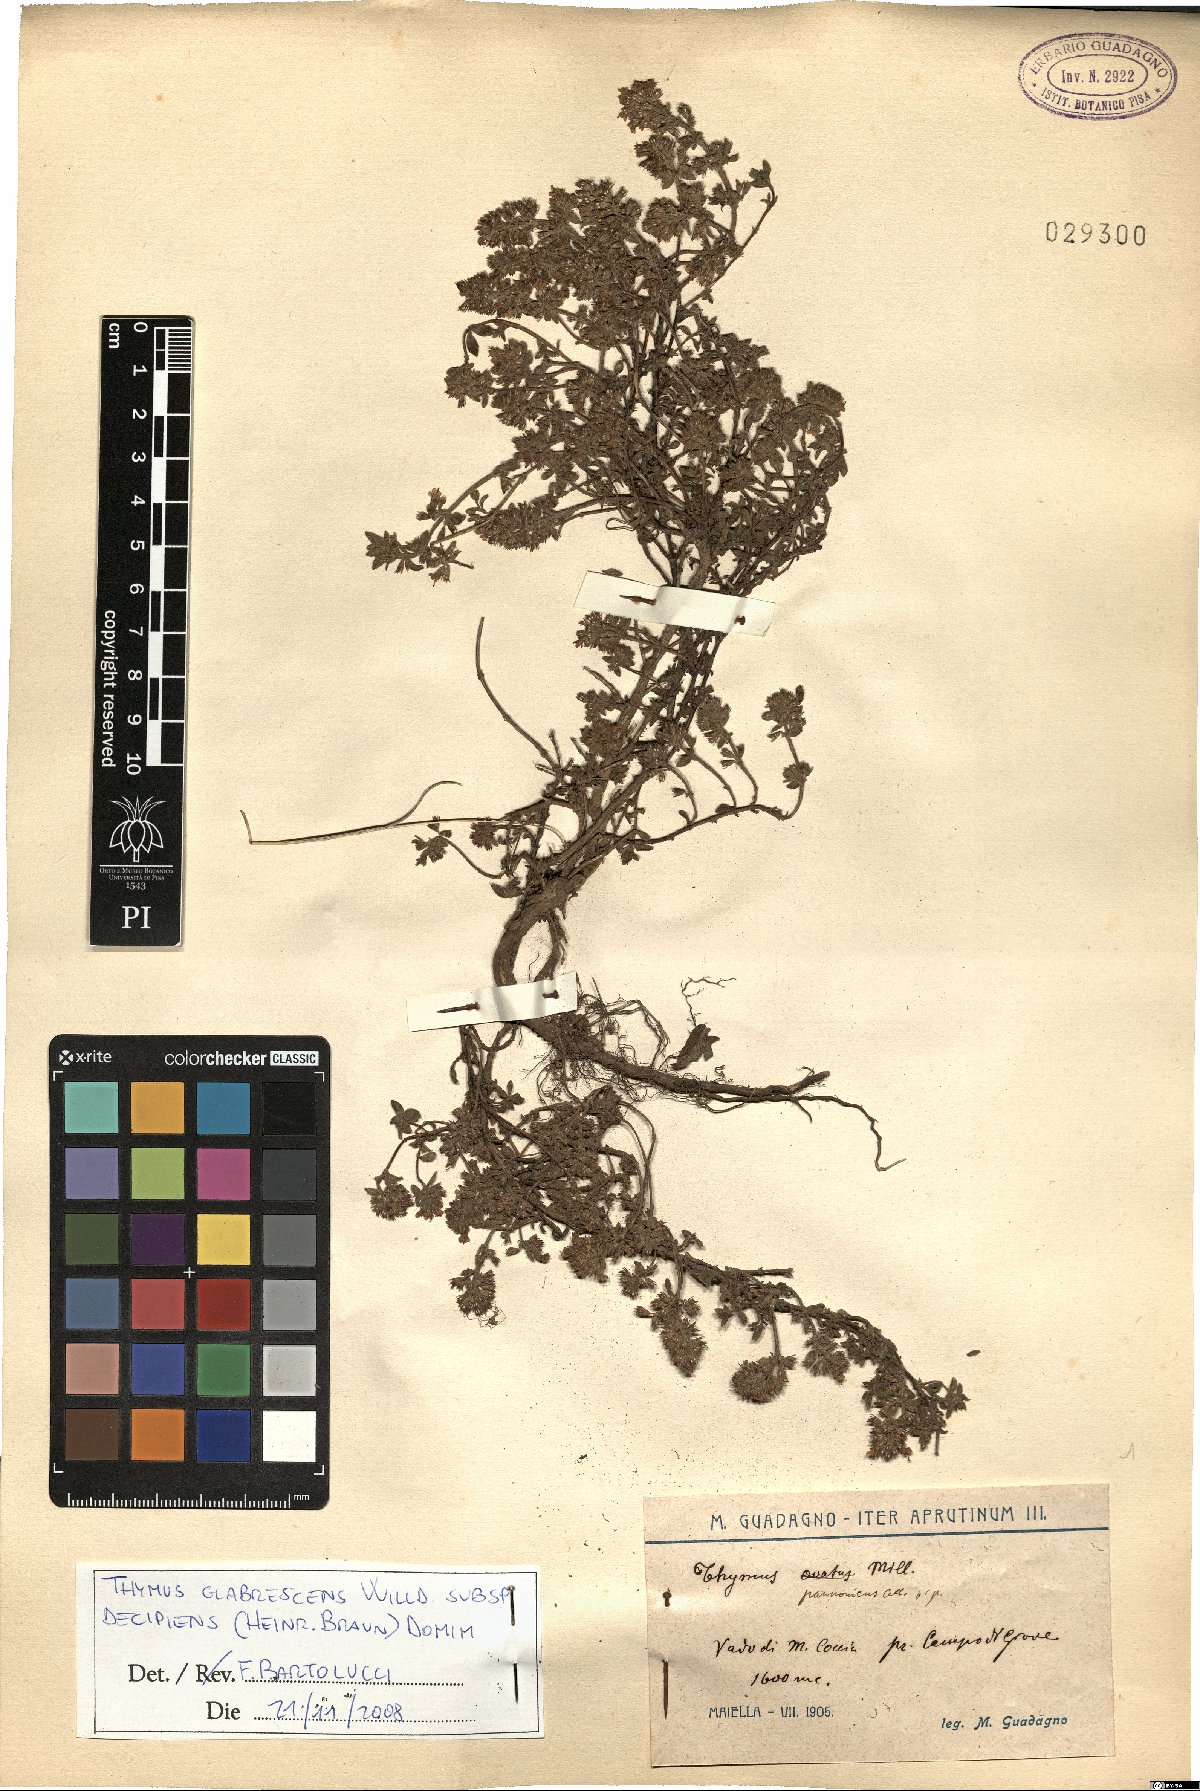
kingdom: Plantae
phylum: Tracheophyta
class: Magnoliopsida
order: Lamiales
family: Lamiaceae
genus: Thymus
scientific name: Thymus oenipontanus
